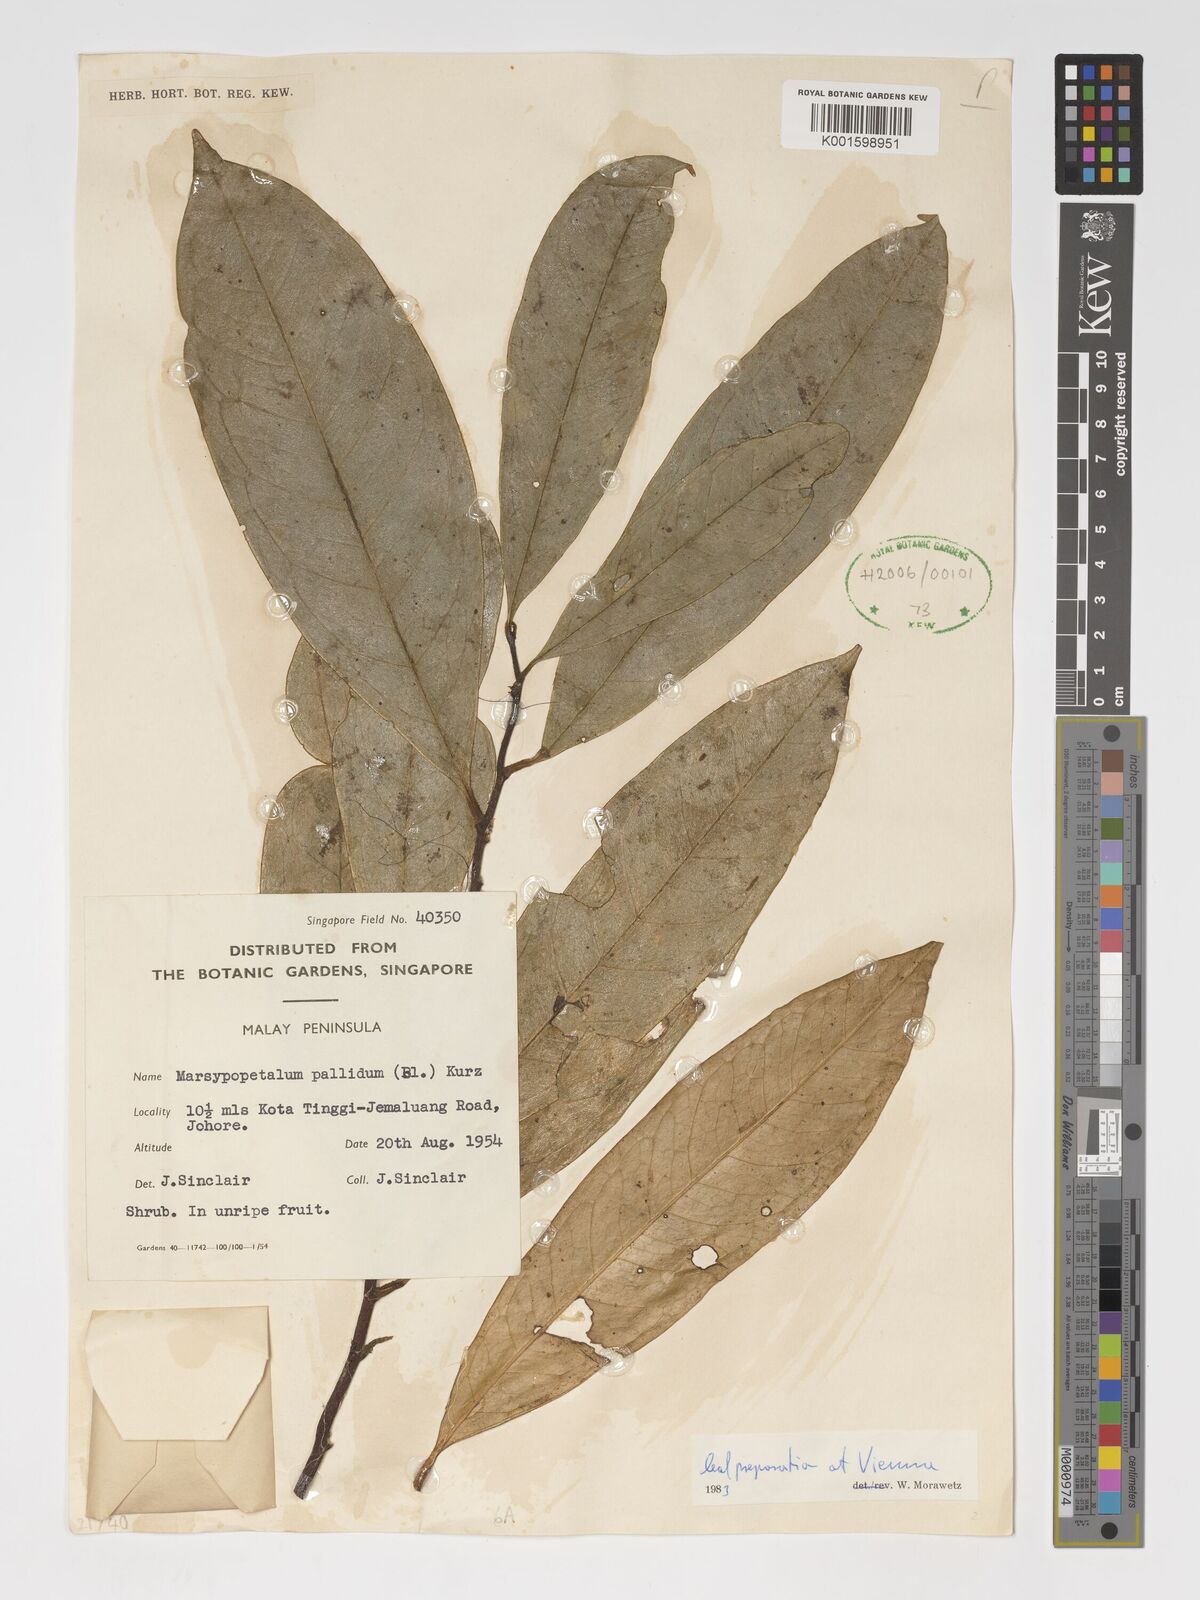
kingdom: Plantae
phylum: Tracheophyta
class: Magnoliopsida
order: Magnoliales
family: Annonaceae
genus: Marsypopetalum
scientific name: Marsypopetalum pallidum
